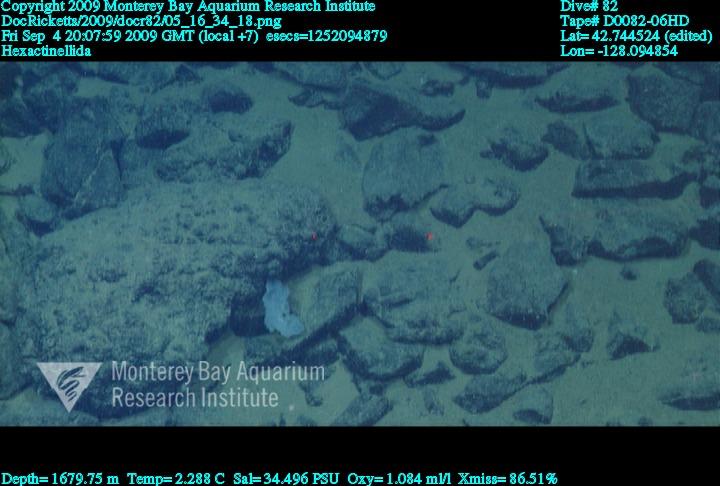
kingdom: Animalia
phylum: Porifera
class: Hexactinellida
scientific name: Hexactinellida
